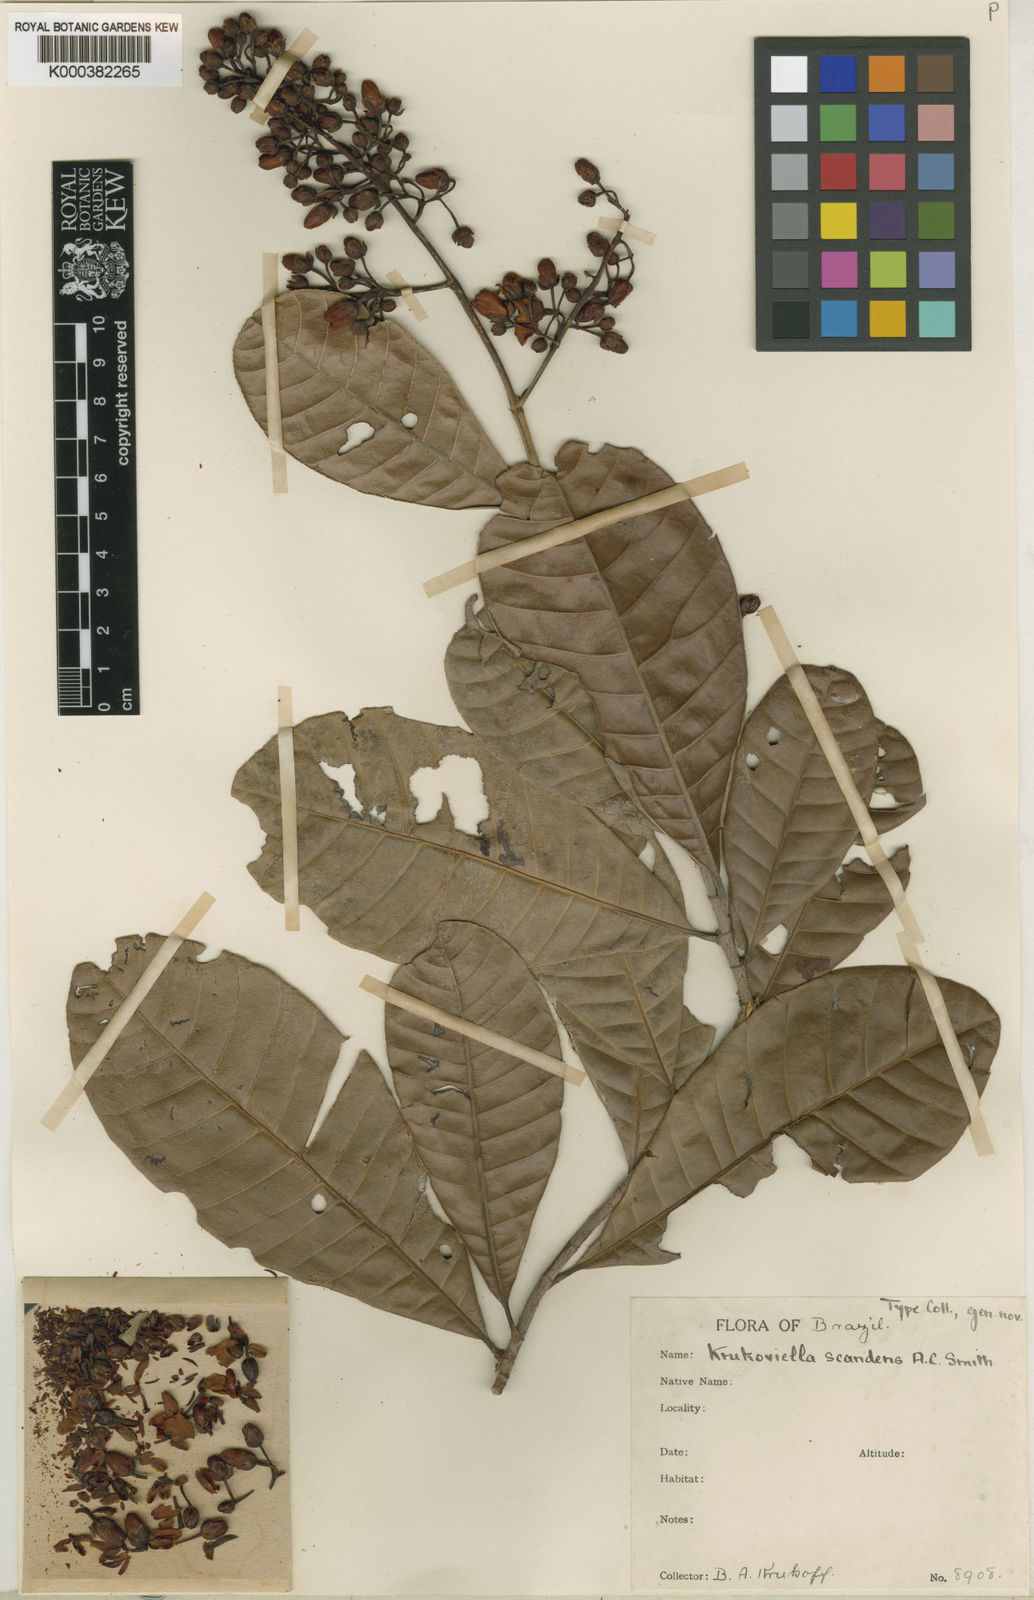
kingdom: Plantae
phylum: Tracheophyta
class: Magnoliopsida
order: Malpighiales
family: Ochnaceae
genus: Krukoviella
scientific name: Krukoviella disticha
